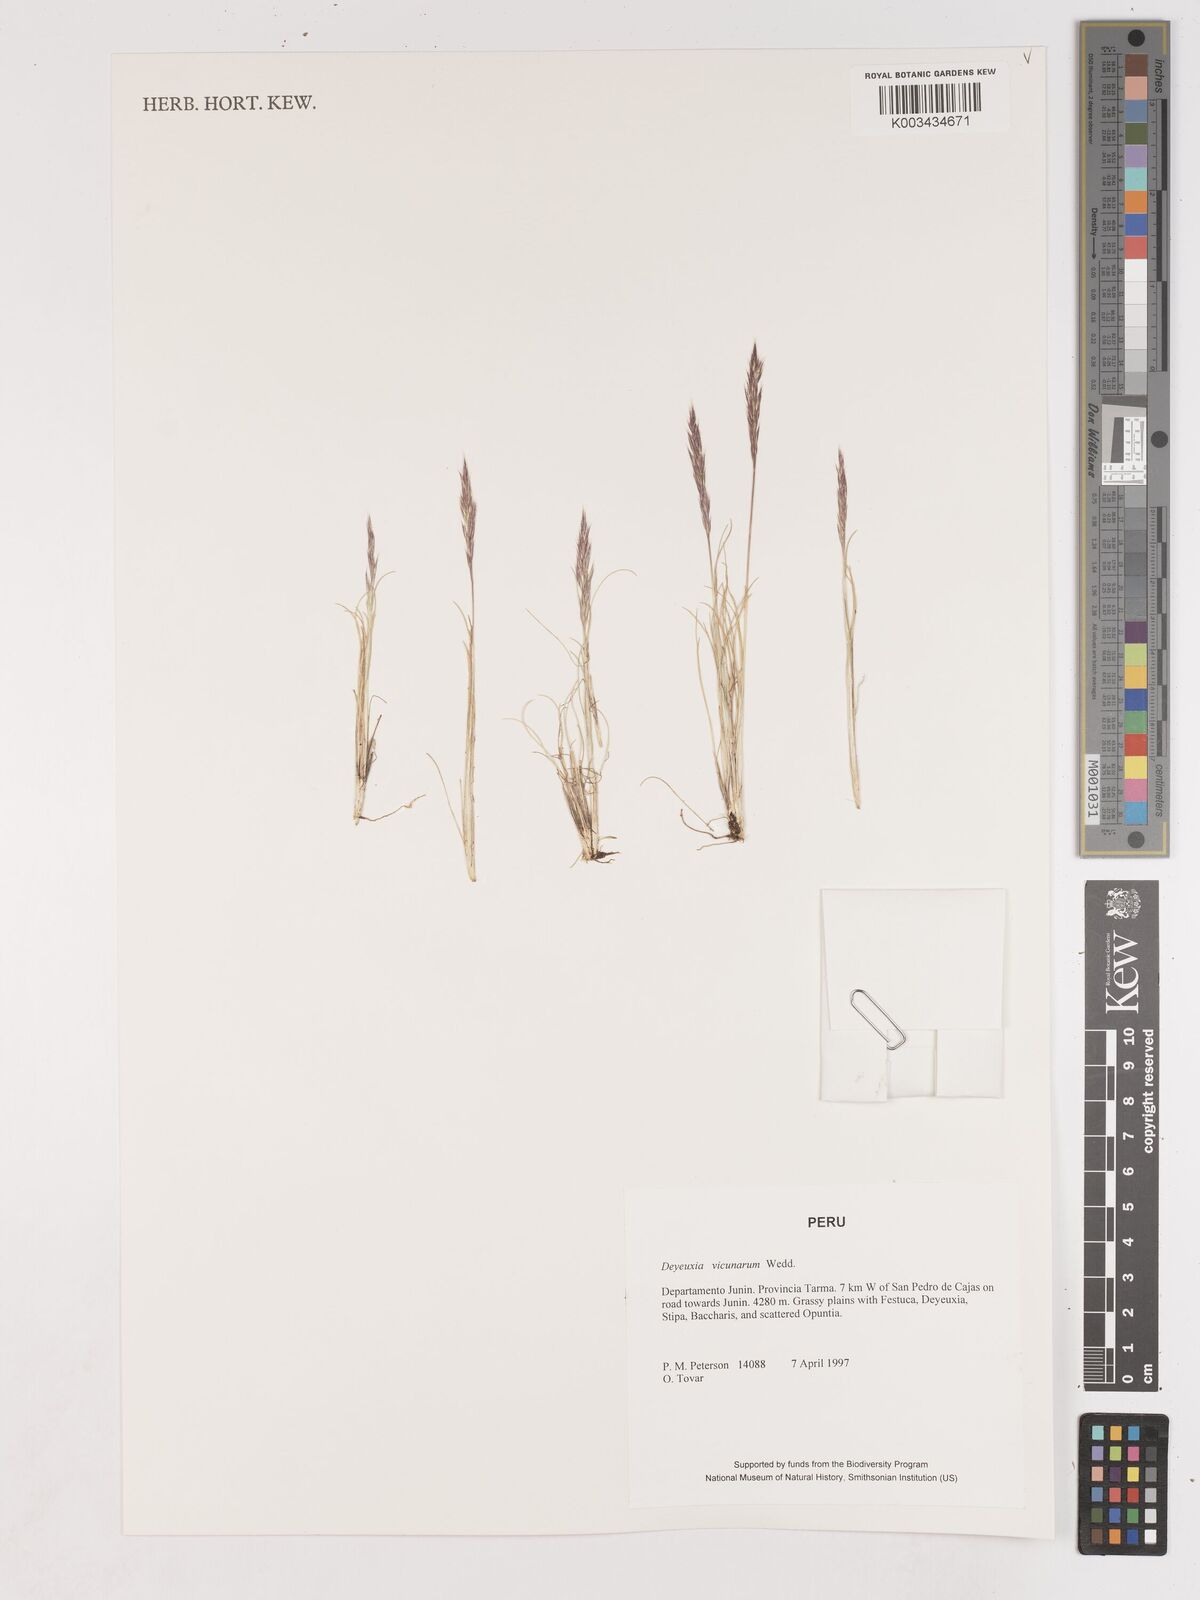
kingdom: Plantae
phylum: Tracheophyta
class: Liliopsida
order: Poales
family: Poaceae
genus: Cinnagrostis
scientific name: Cinnagrostis vicunarum
